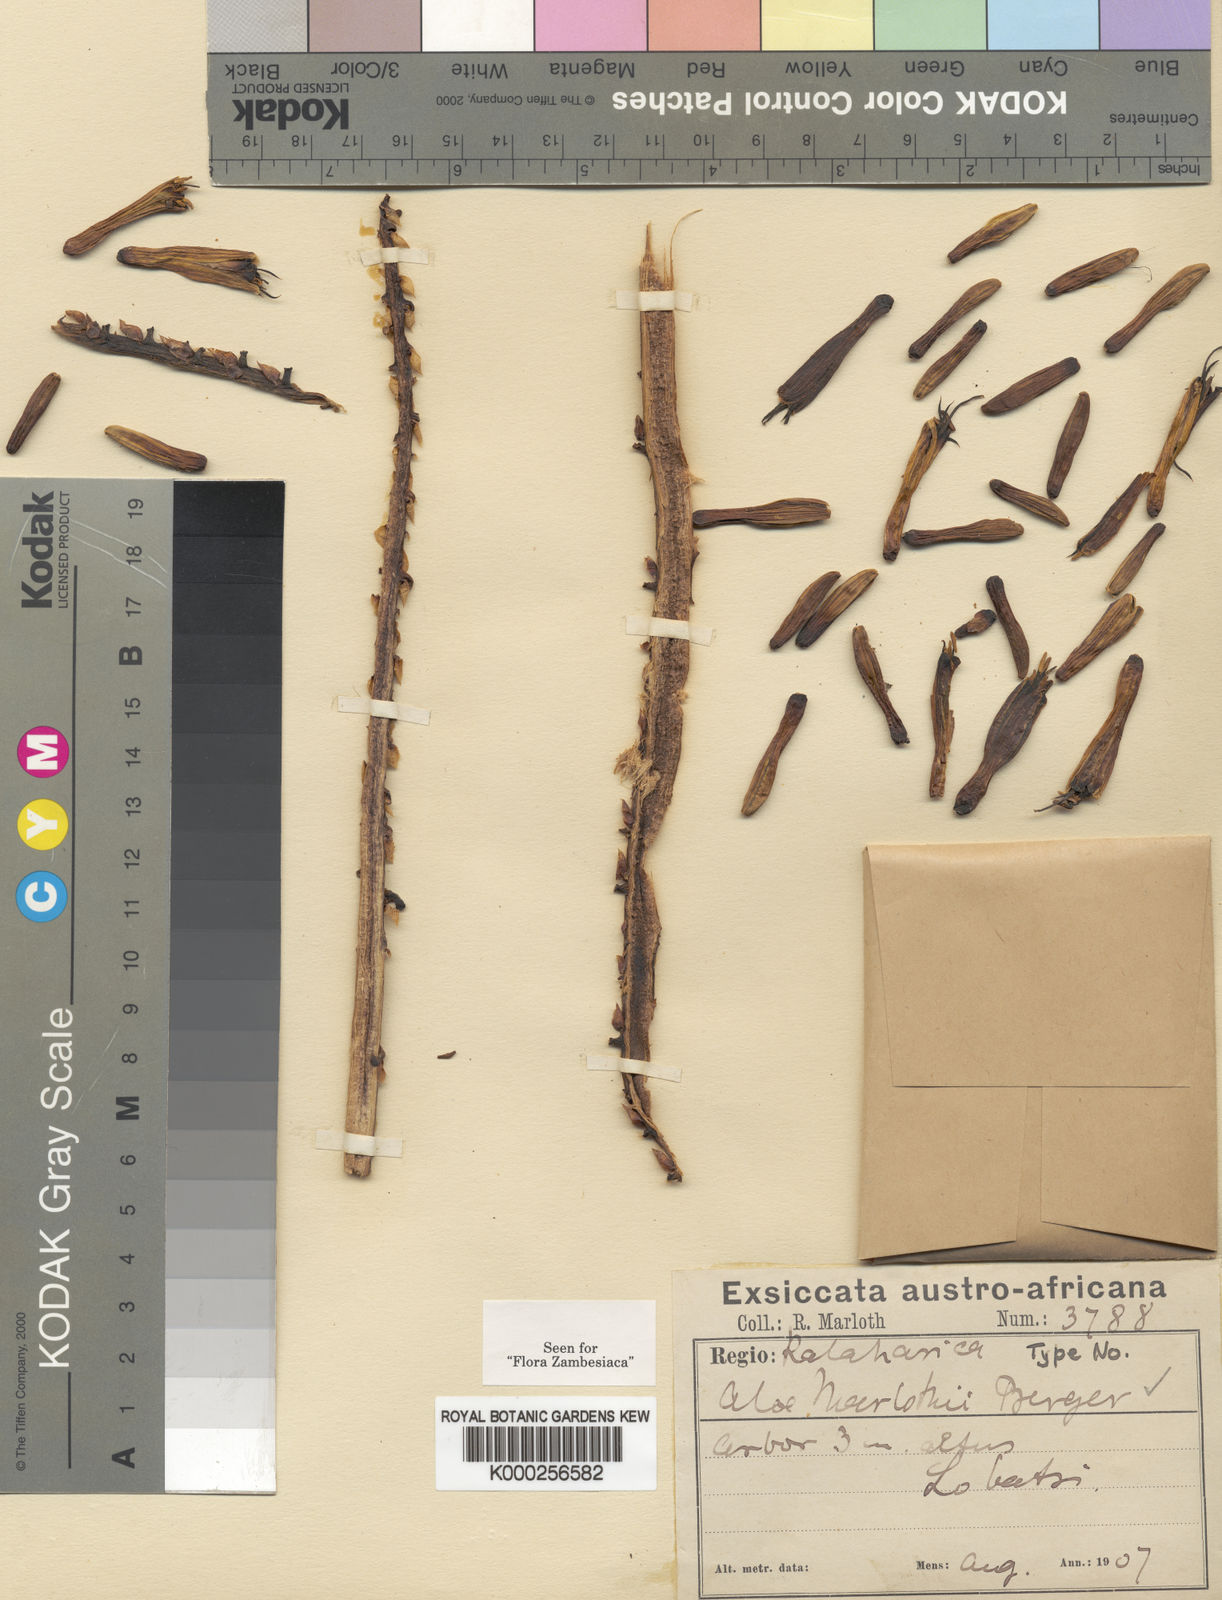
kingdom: Plantae
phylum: Tracheophyta
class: Liliopsida
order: Asparagales
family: Asphodelaceae
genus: Aloe
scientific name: Aloe marlothii
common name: Flat-flowered aloe
